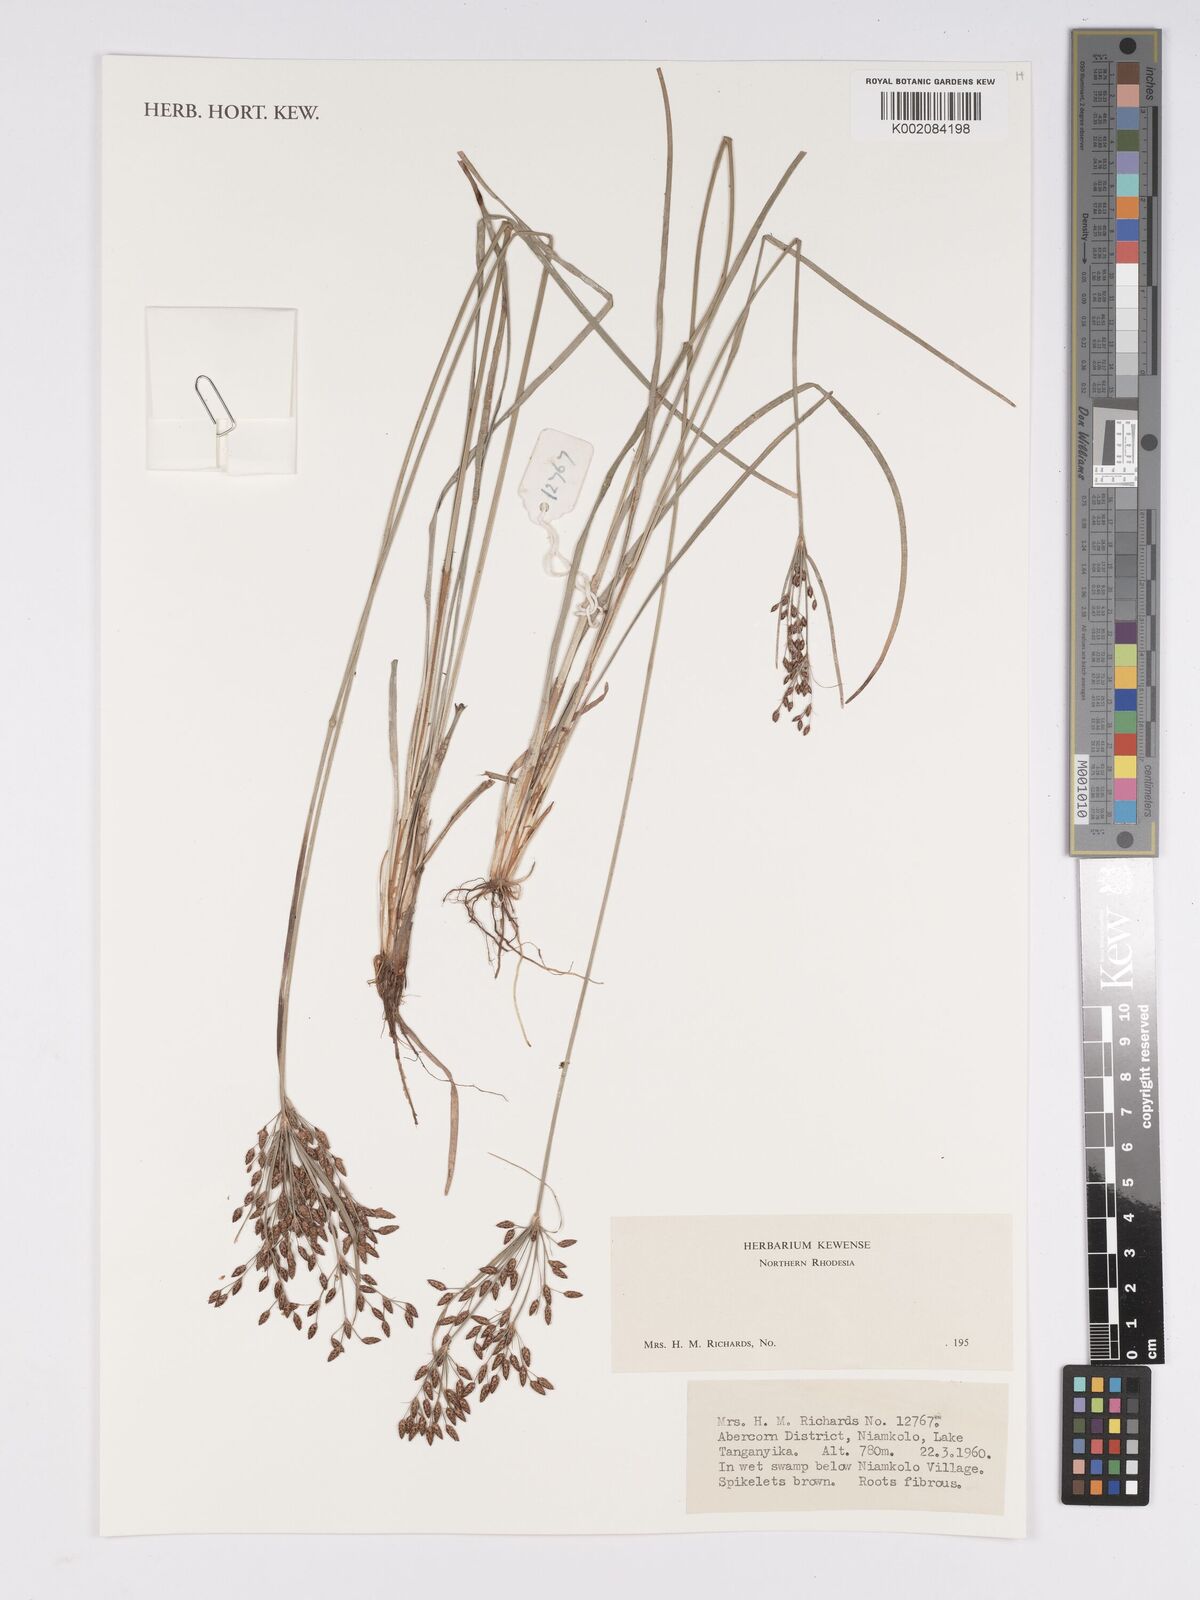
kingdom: Plantae
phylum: Tracheophyta
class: Liliopsida
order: Poales
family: Cyperaceae
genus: Bulbostylis
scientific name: Bulbostylis
